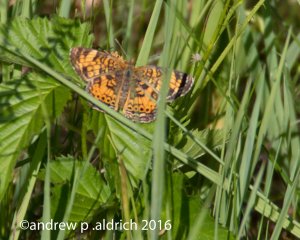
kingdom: Animalia
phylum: Arthropoda
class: Insecta
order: Lepidoptera
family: Nymphalidae
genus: Phyciodes
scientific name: Phyciodes
